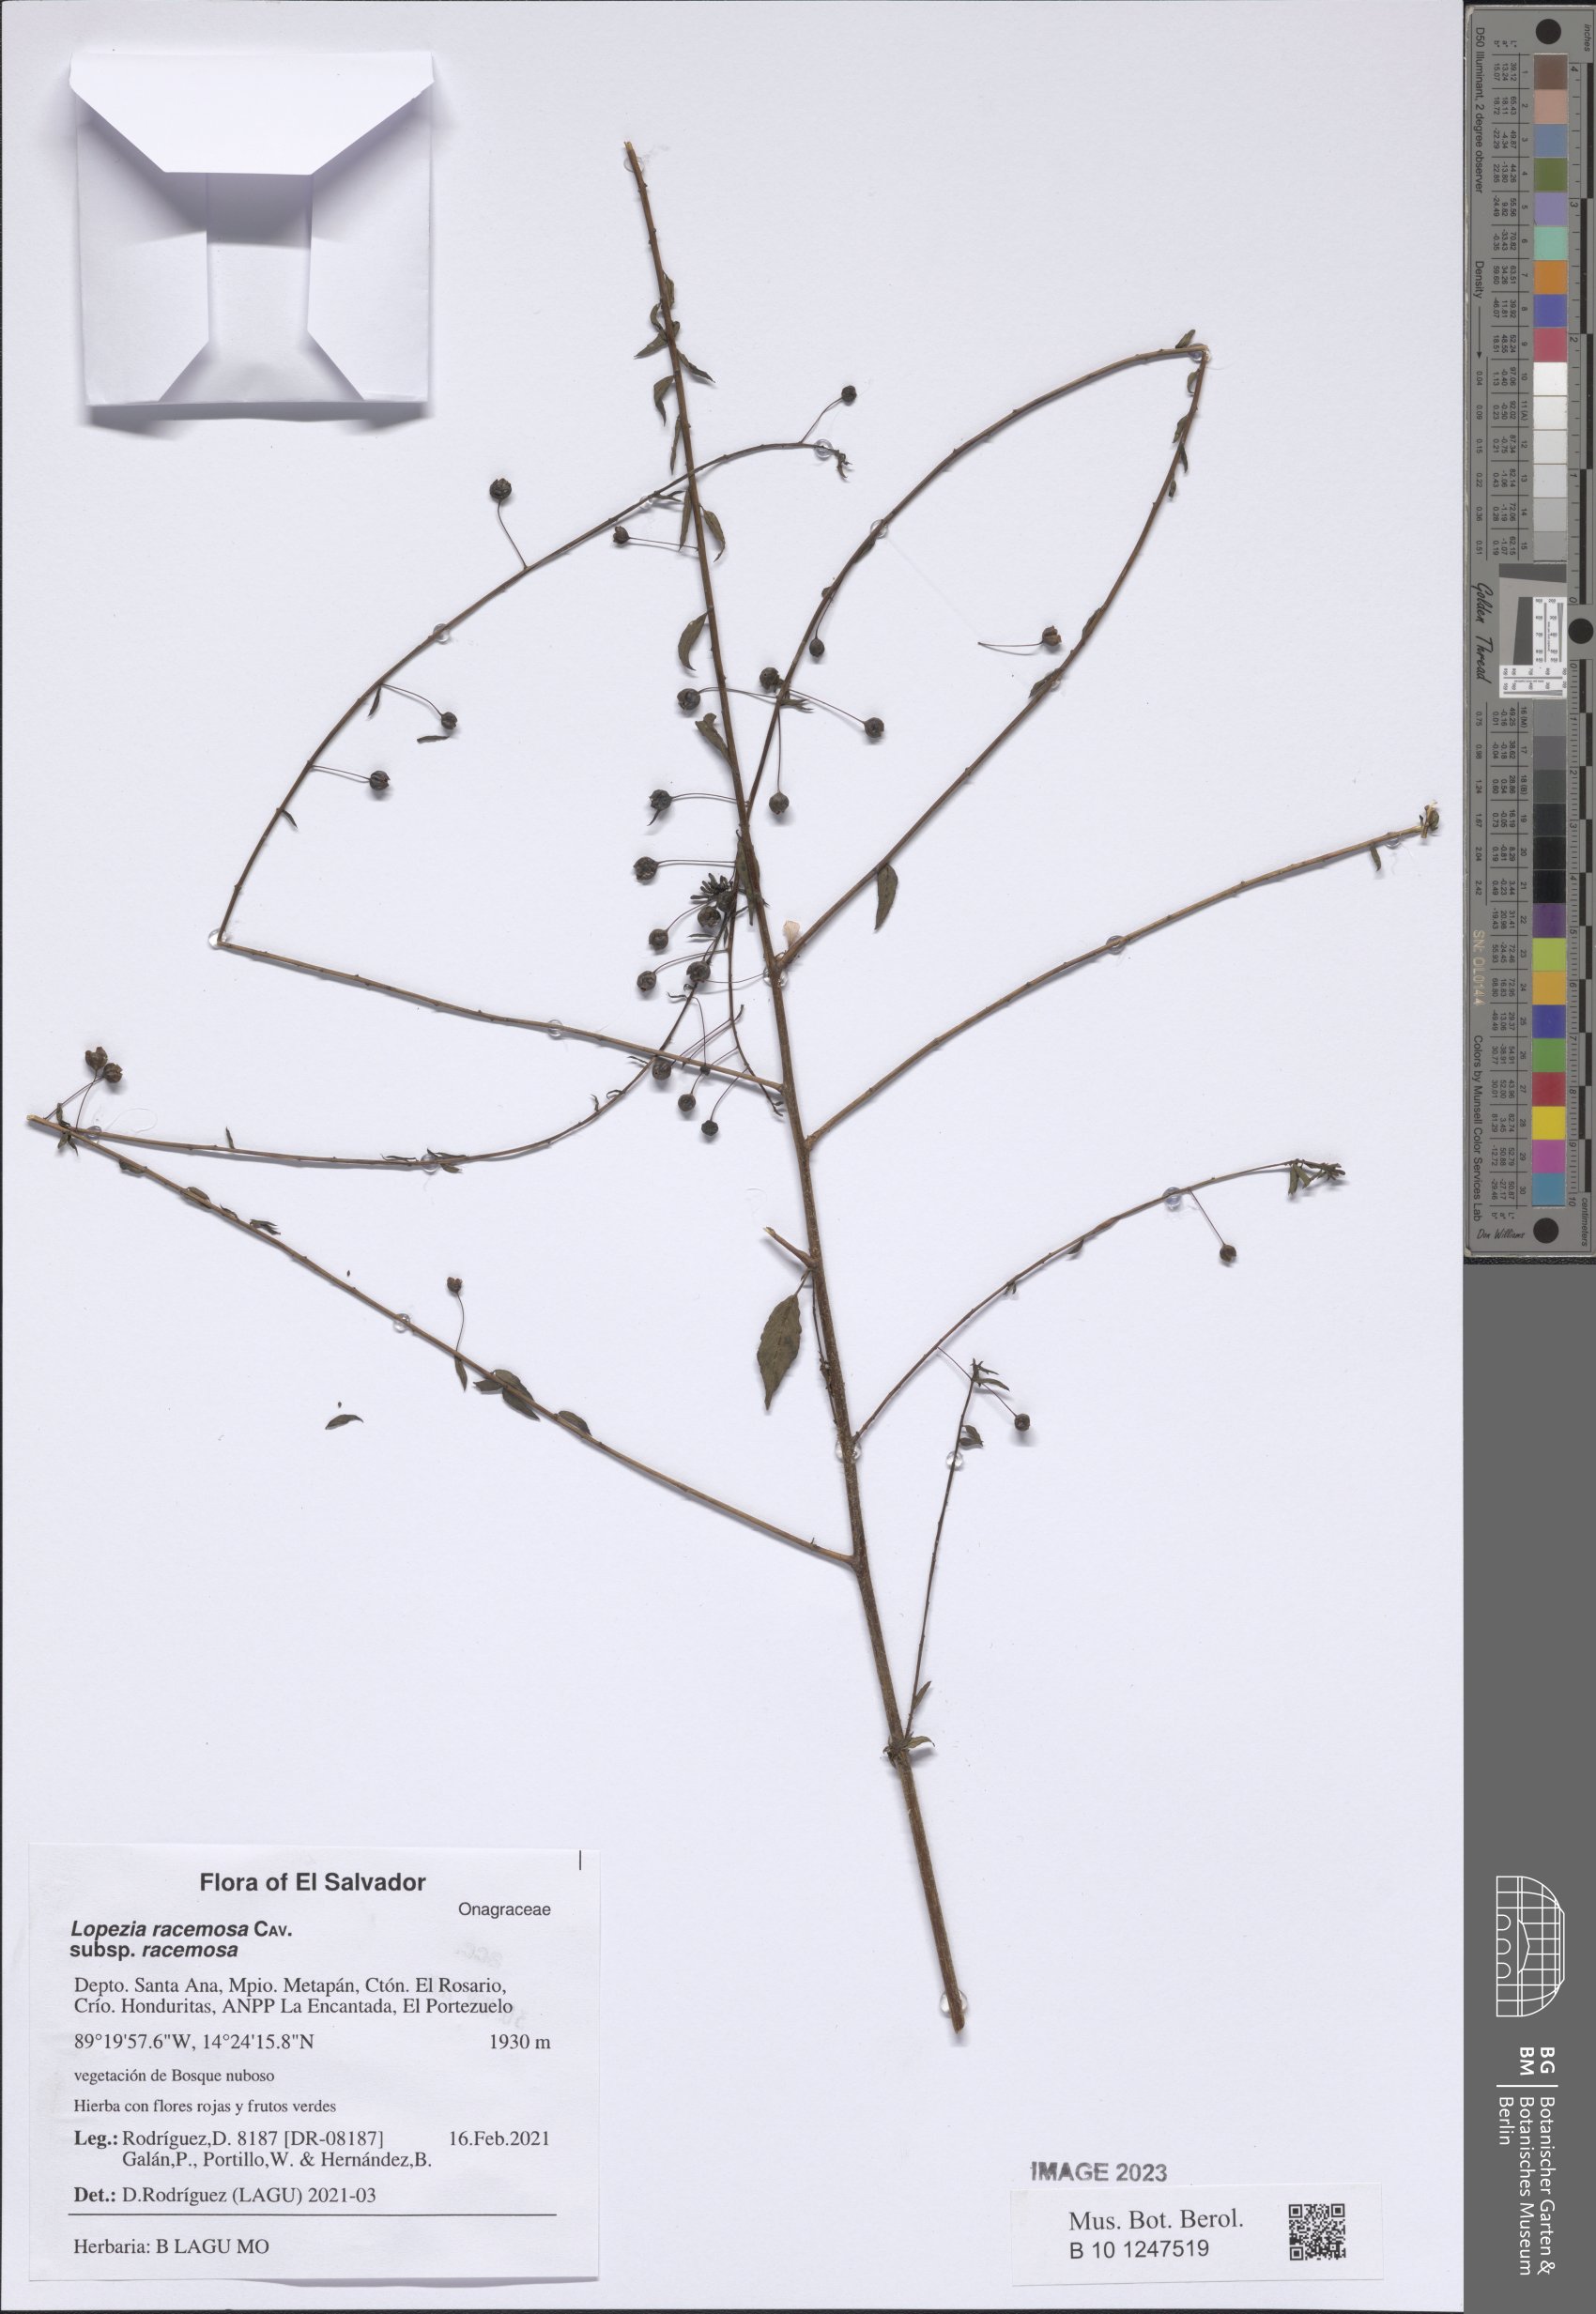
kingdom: Plantae
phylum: Tracheophyta
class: Magnoliopsida
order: Myrtales
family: Onagraceae
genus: Lopezia
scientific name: Lopezia racemosa
